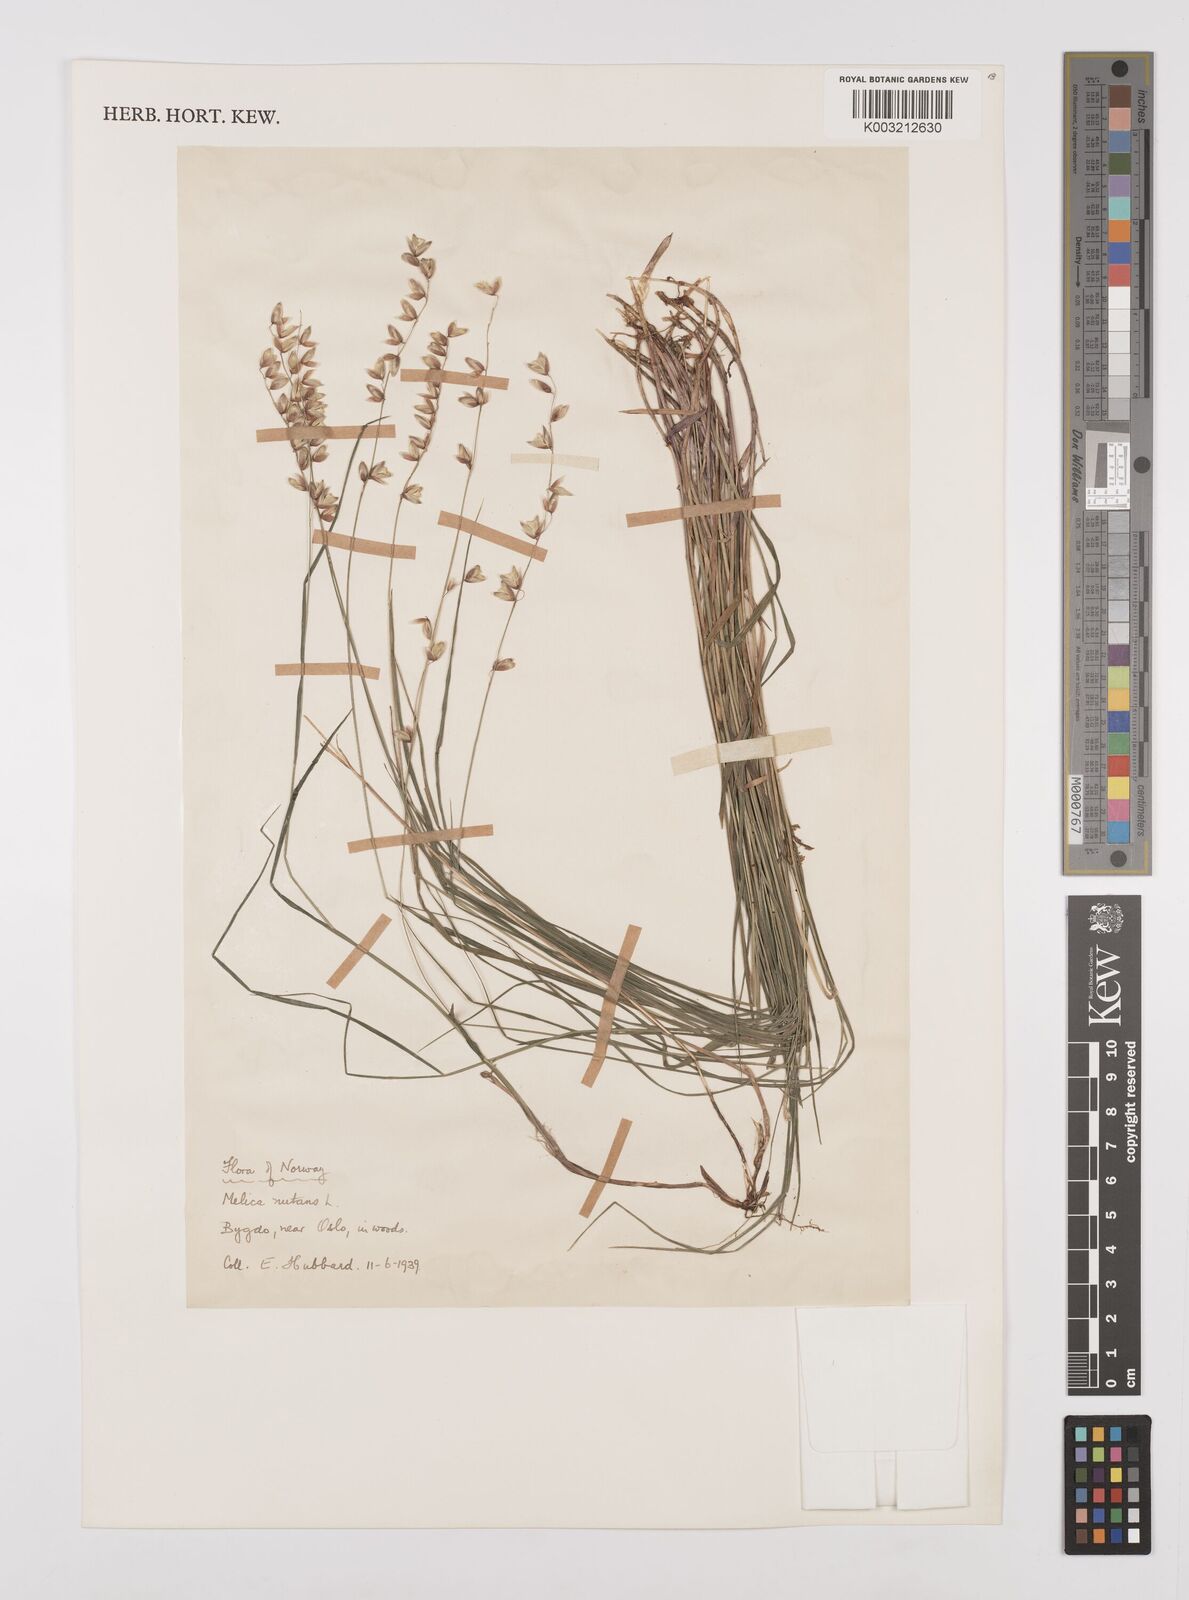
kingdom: Plantae
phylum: Tracheophyta
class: Liliopsida
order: Poales
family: Poaceae
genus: Melica
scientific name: Melica
